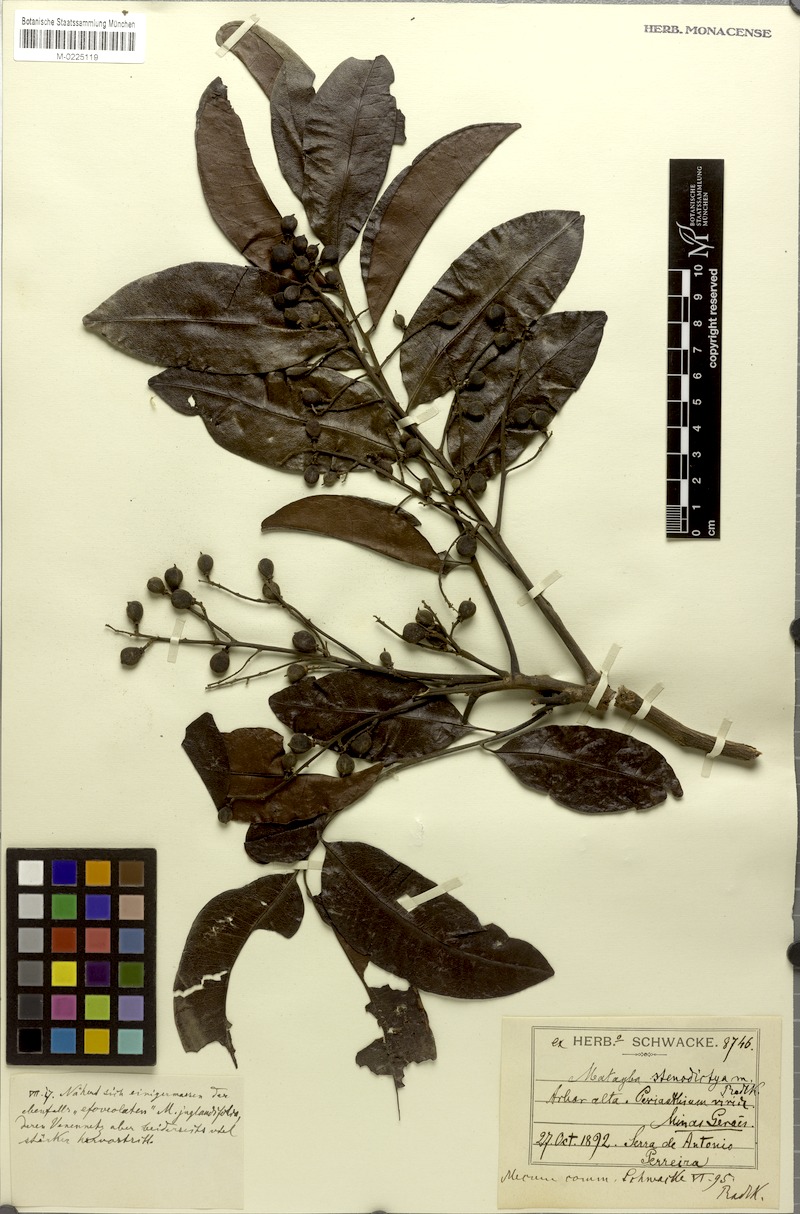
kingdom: Plantae
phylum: Tracheophyta
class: Magnoliopsida
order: Sapindales
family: Sapindaceae
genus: Matayba
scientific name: Matayba stenodictya
